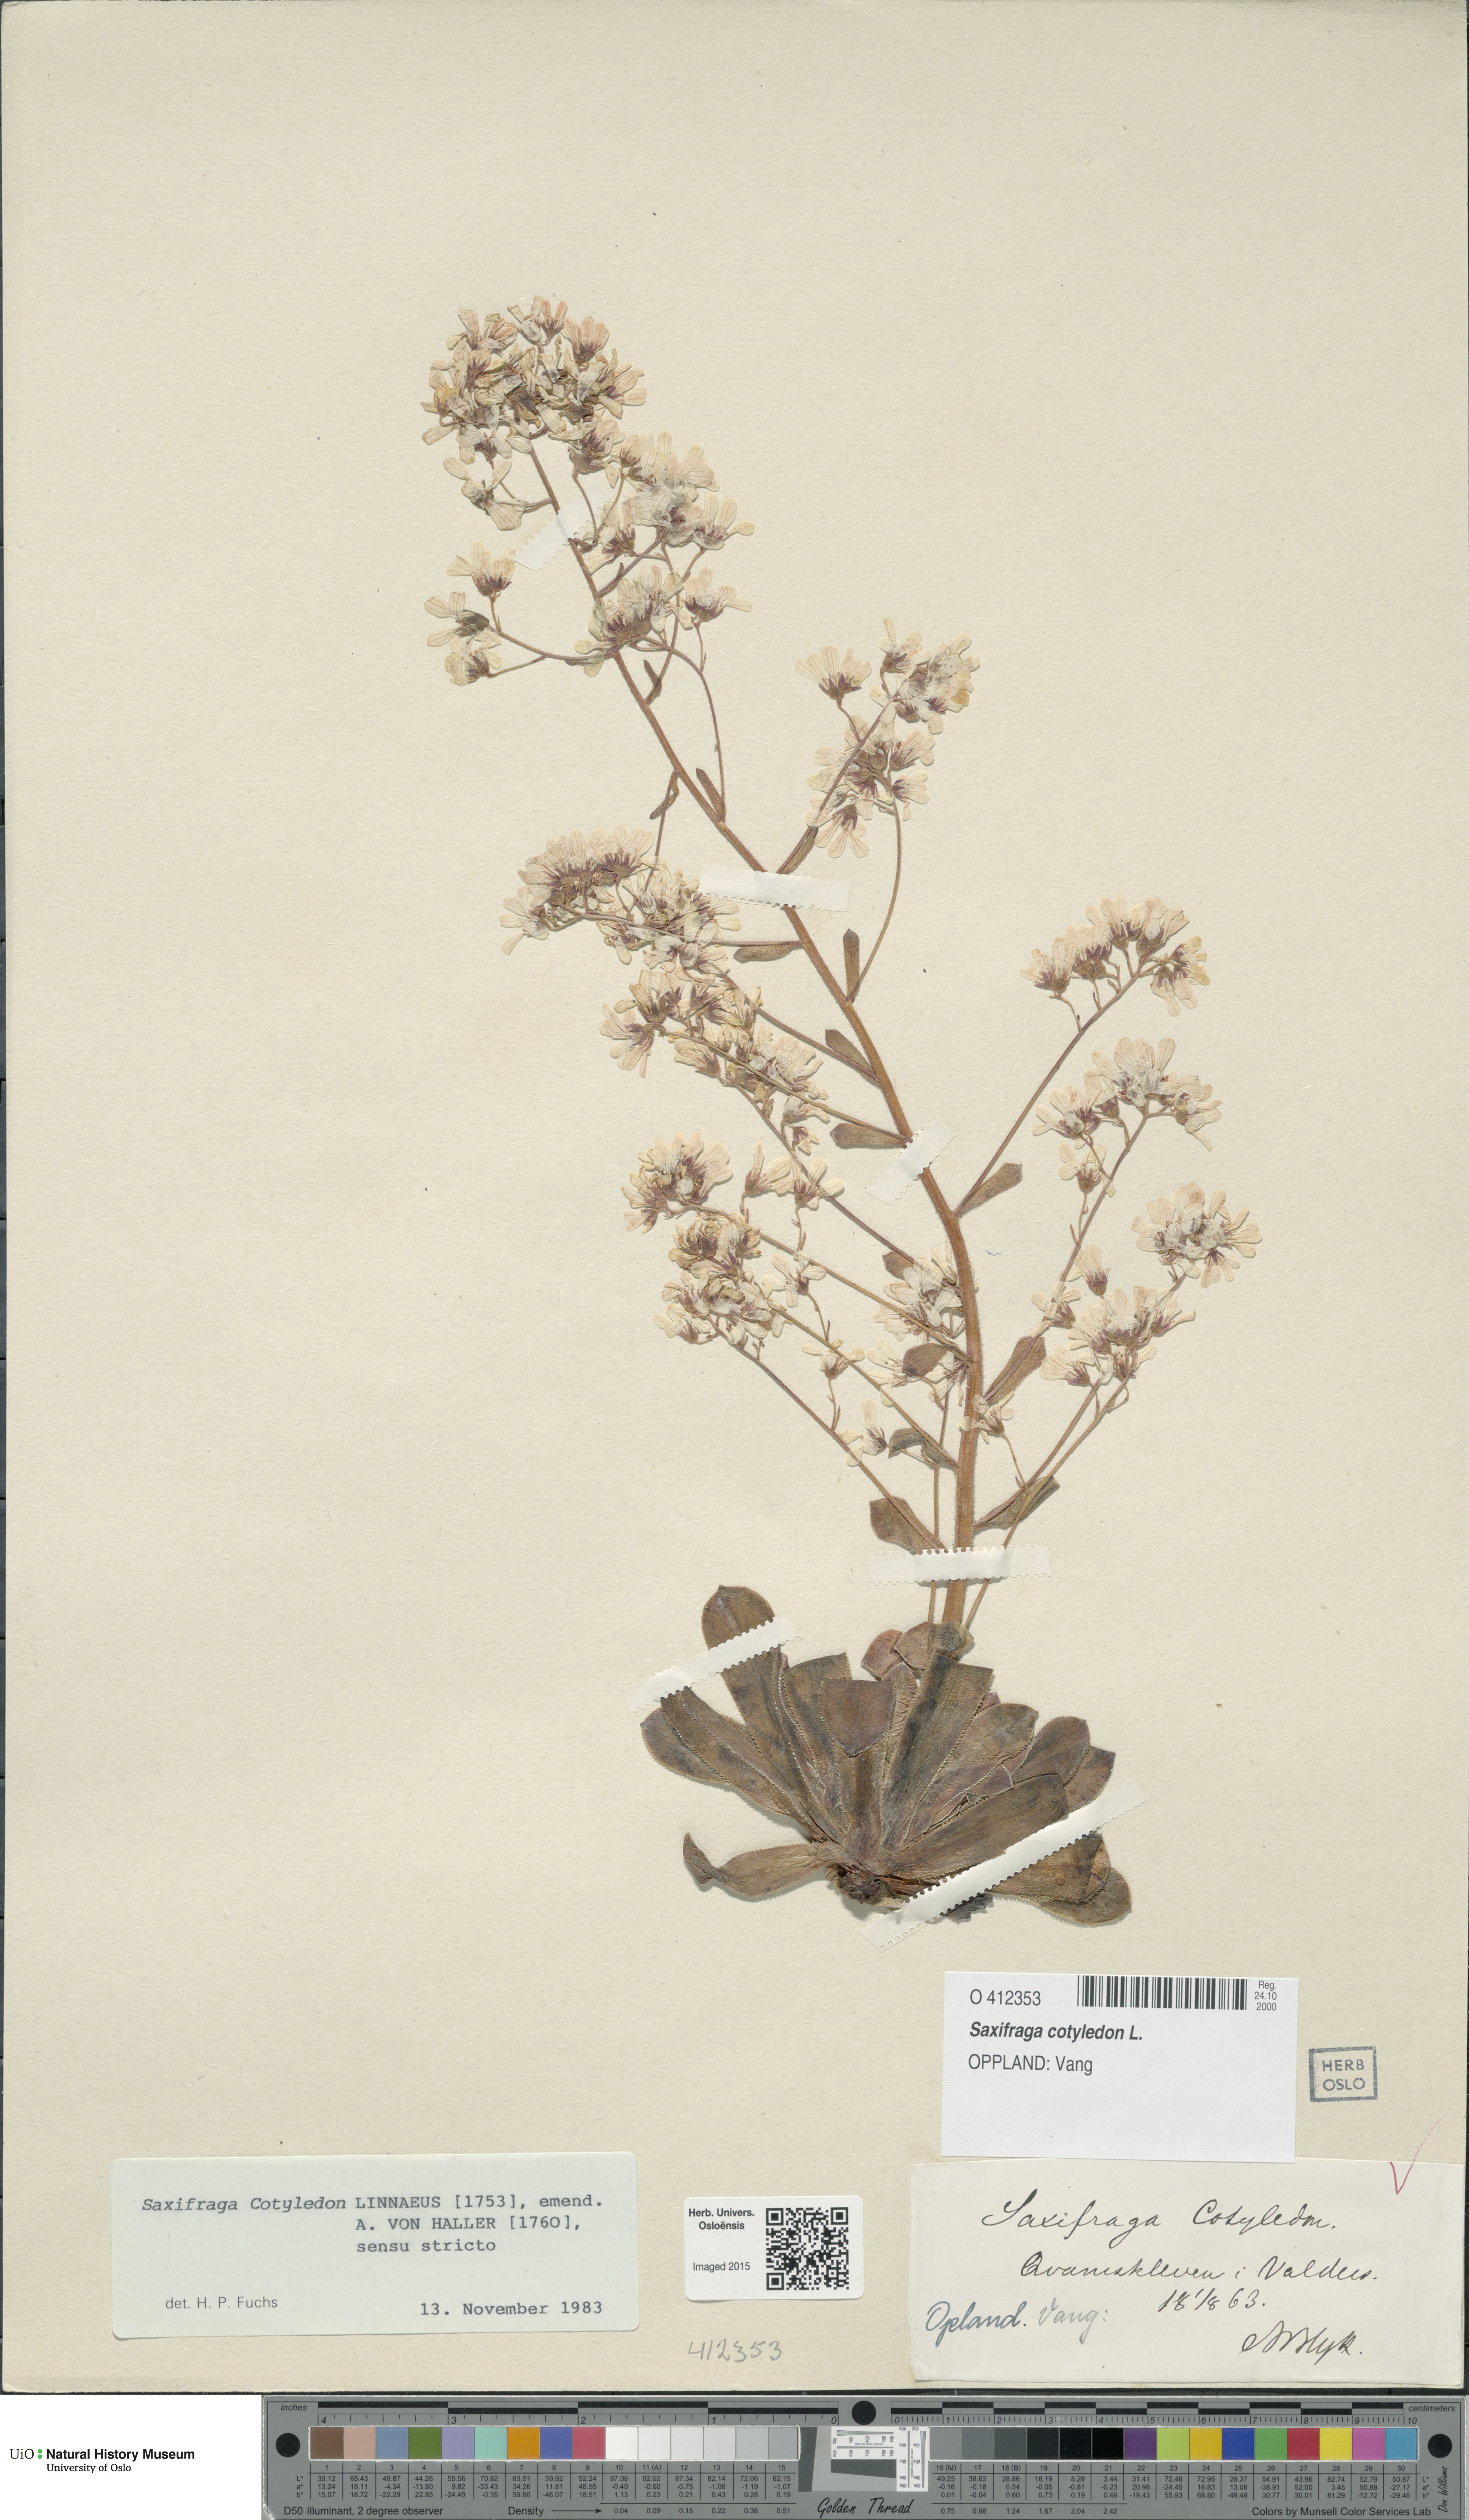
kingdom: Plantae
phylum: Tracheophyta
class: Magnoliopsida
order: Saxifragales
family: Saxifragaceae
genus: Saxifraga
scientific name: Saxifraga cotyledon
